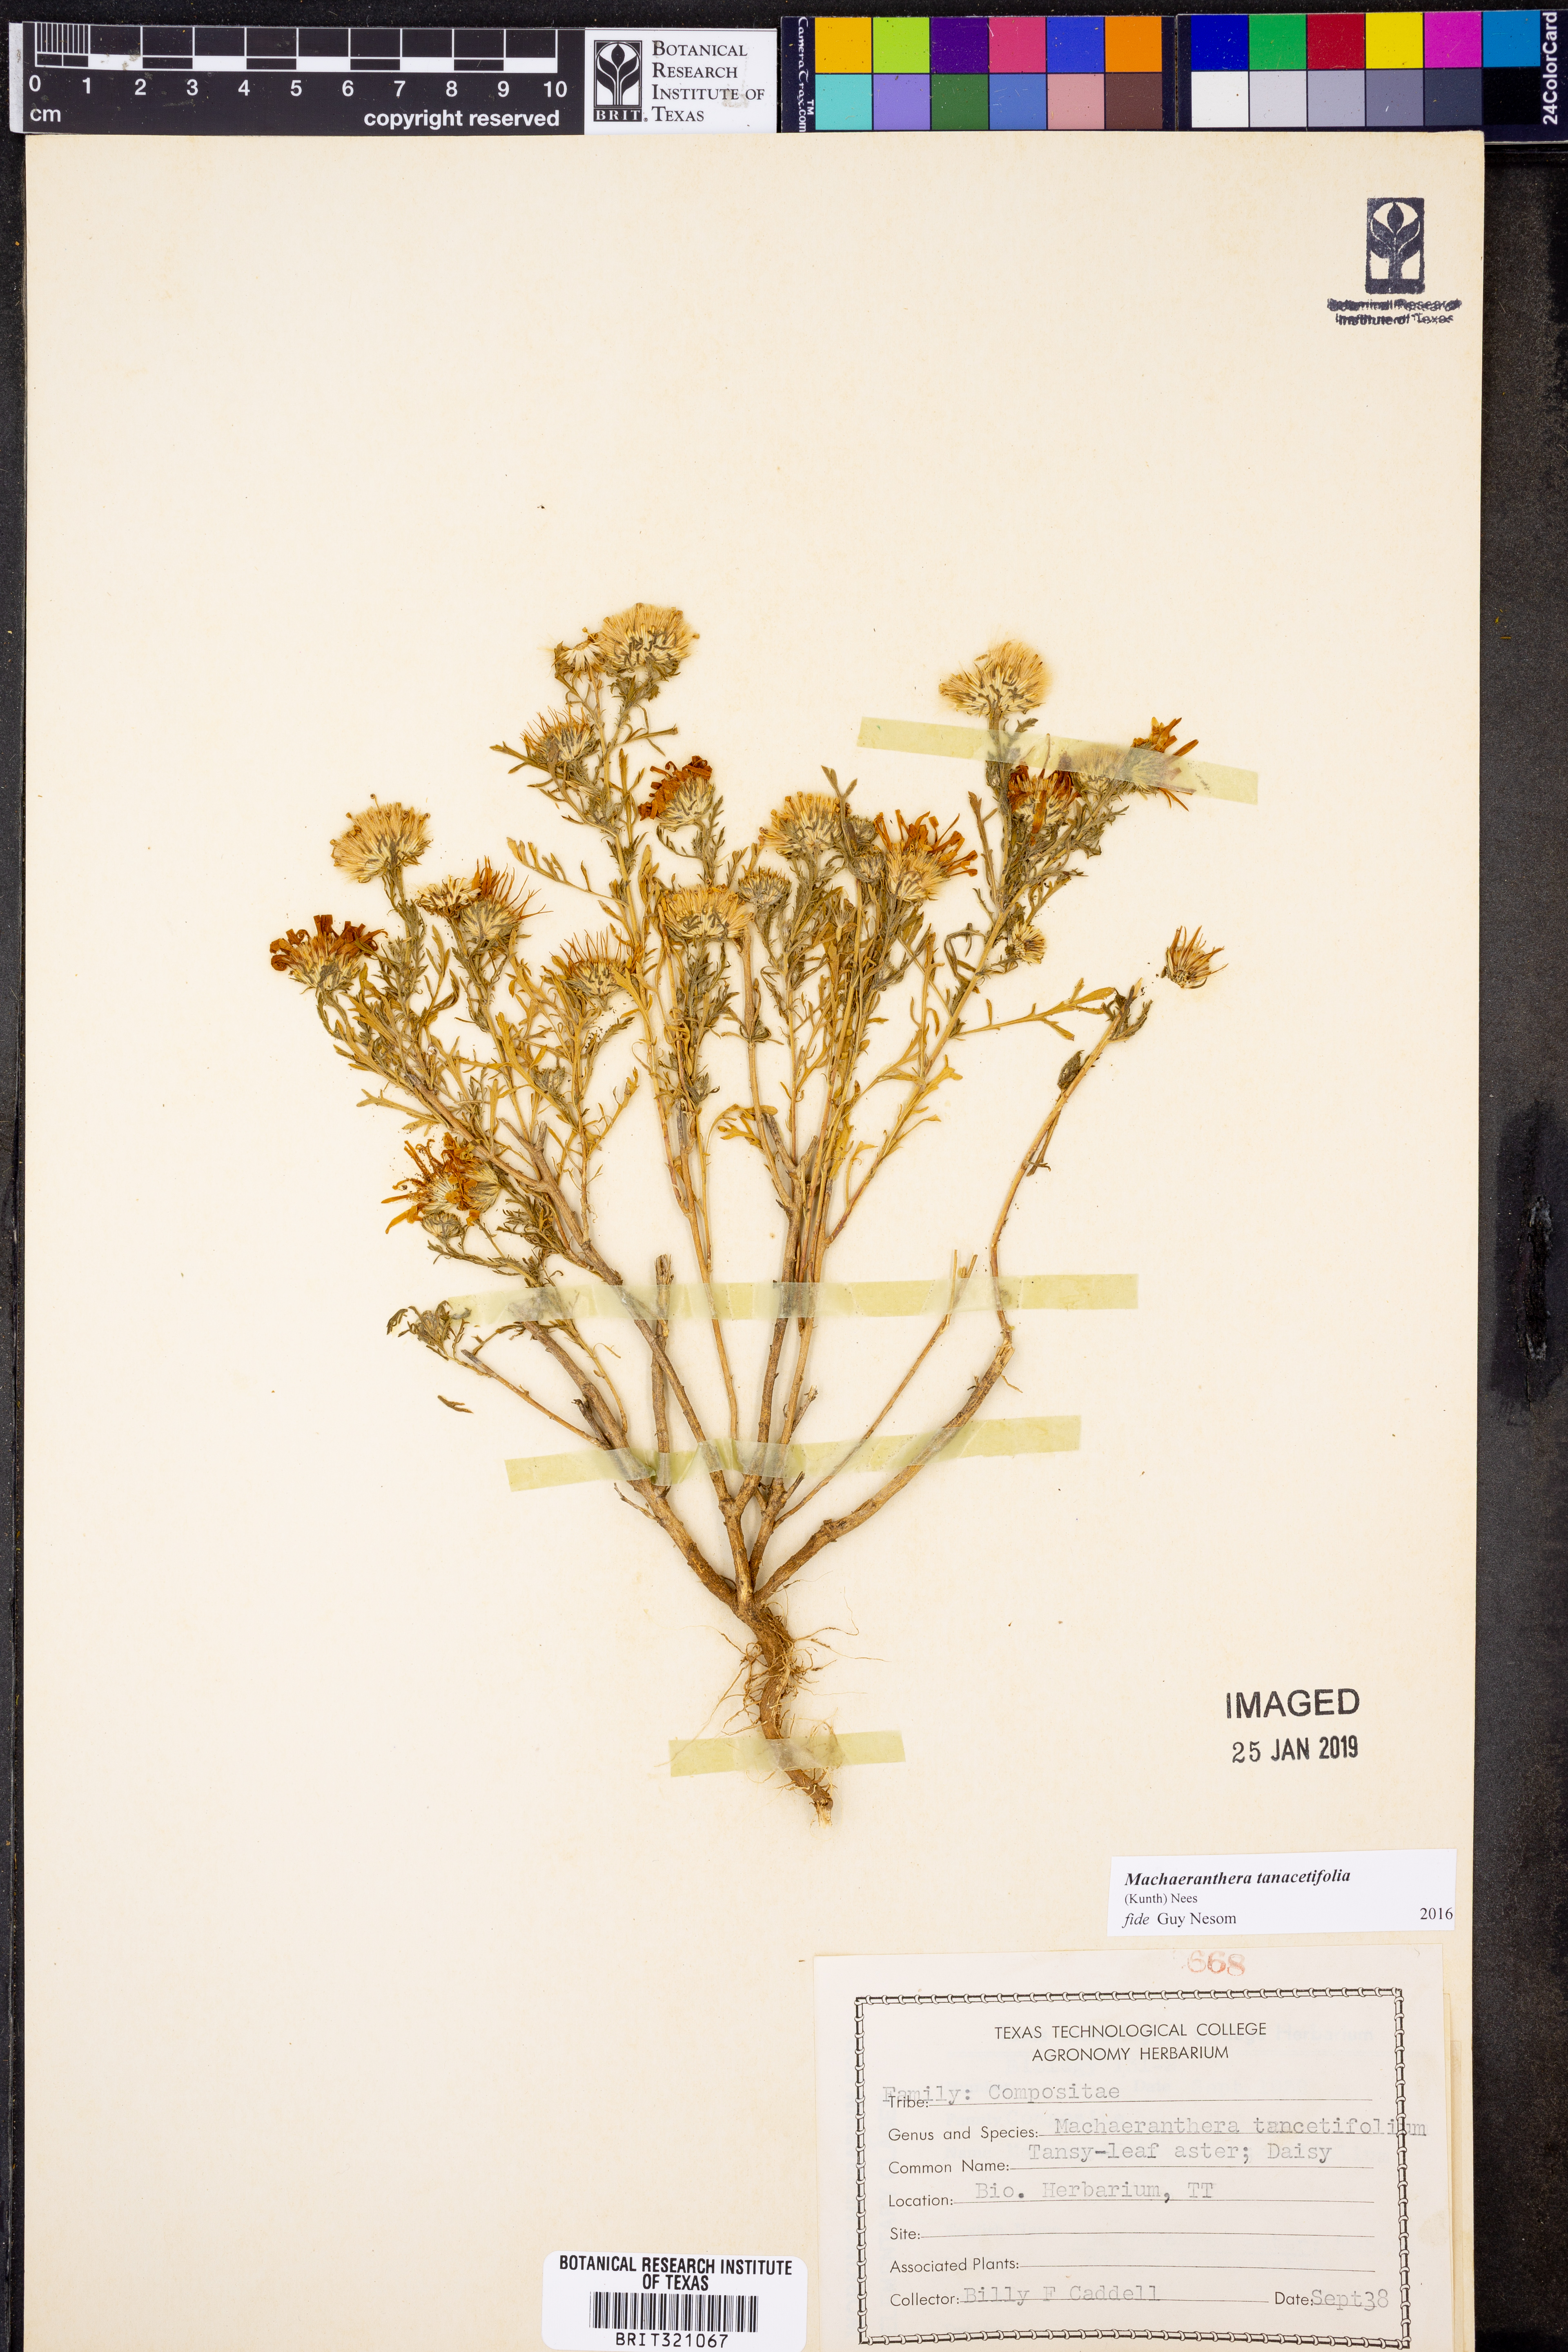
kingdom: Plantae
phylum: Tracheophyta
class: Magnoliopsida
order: Asterales
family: Asteraceae
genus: Machaeranthera
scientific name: Machaeranthera tanacetifolia
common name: Tansy-aster
